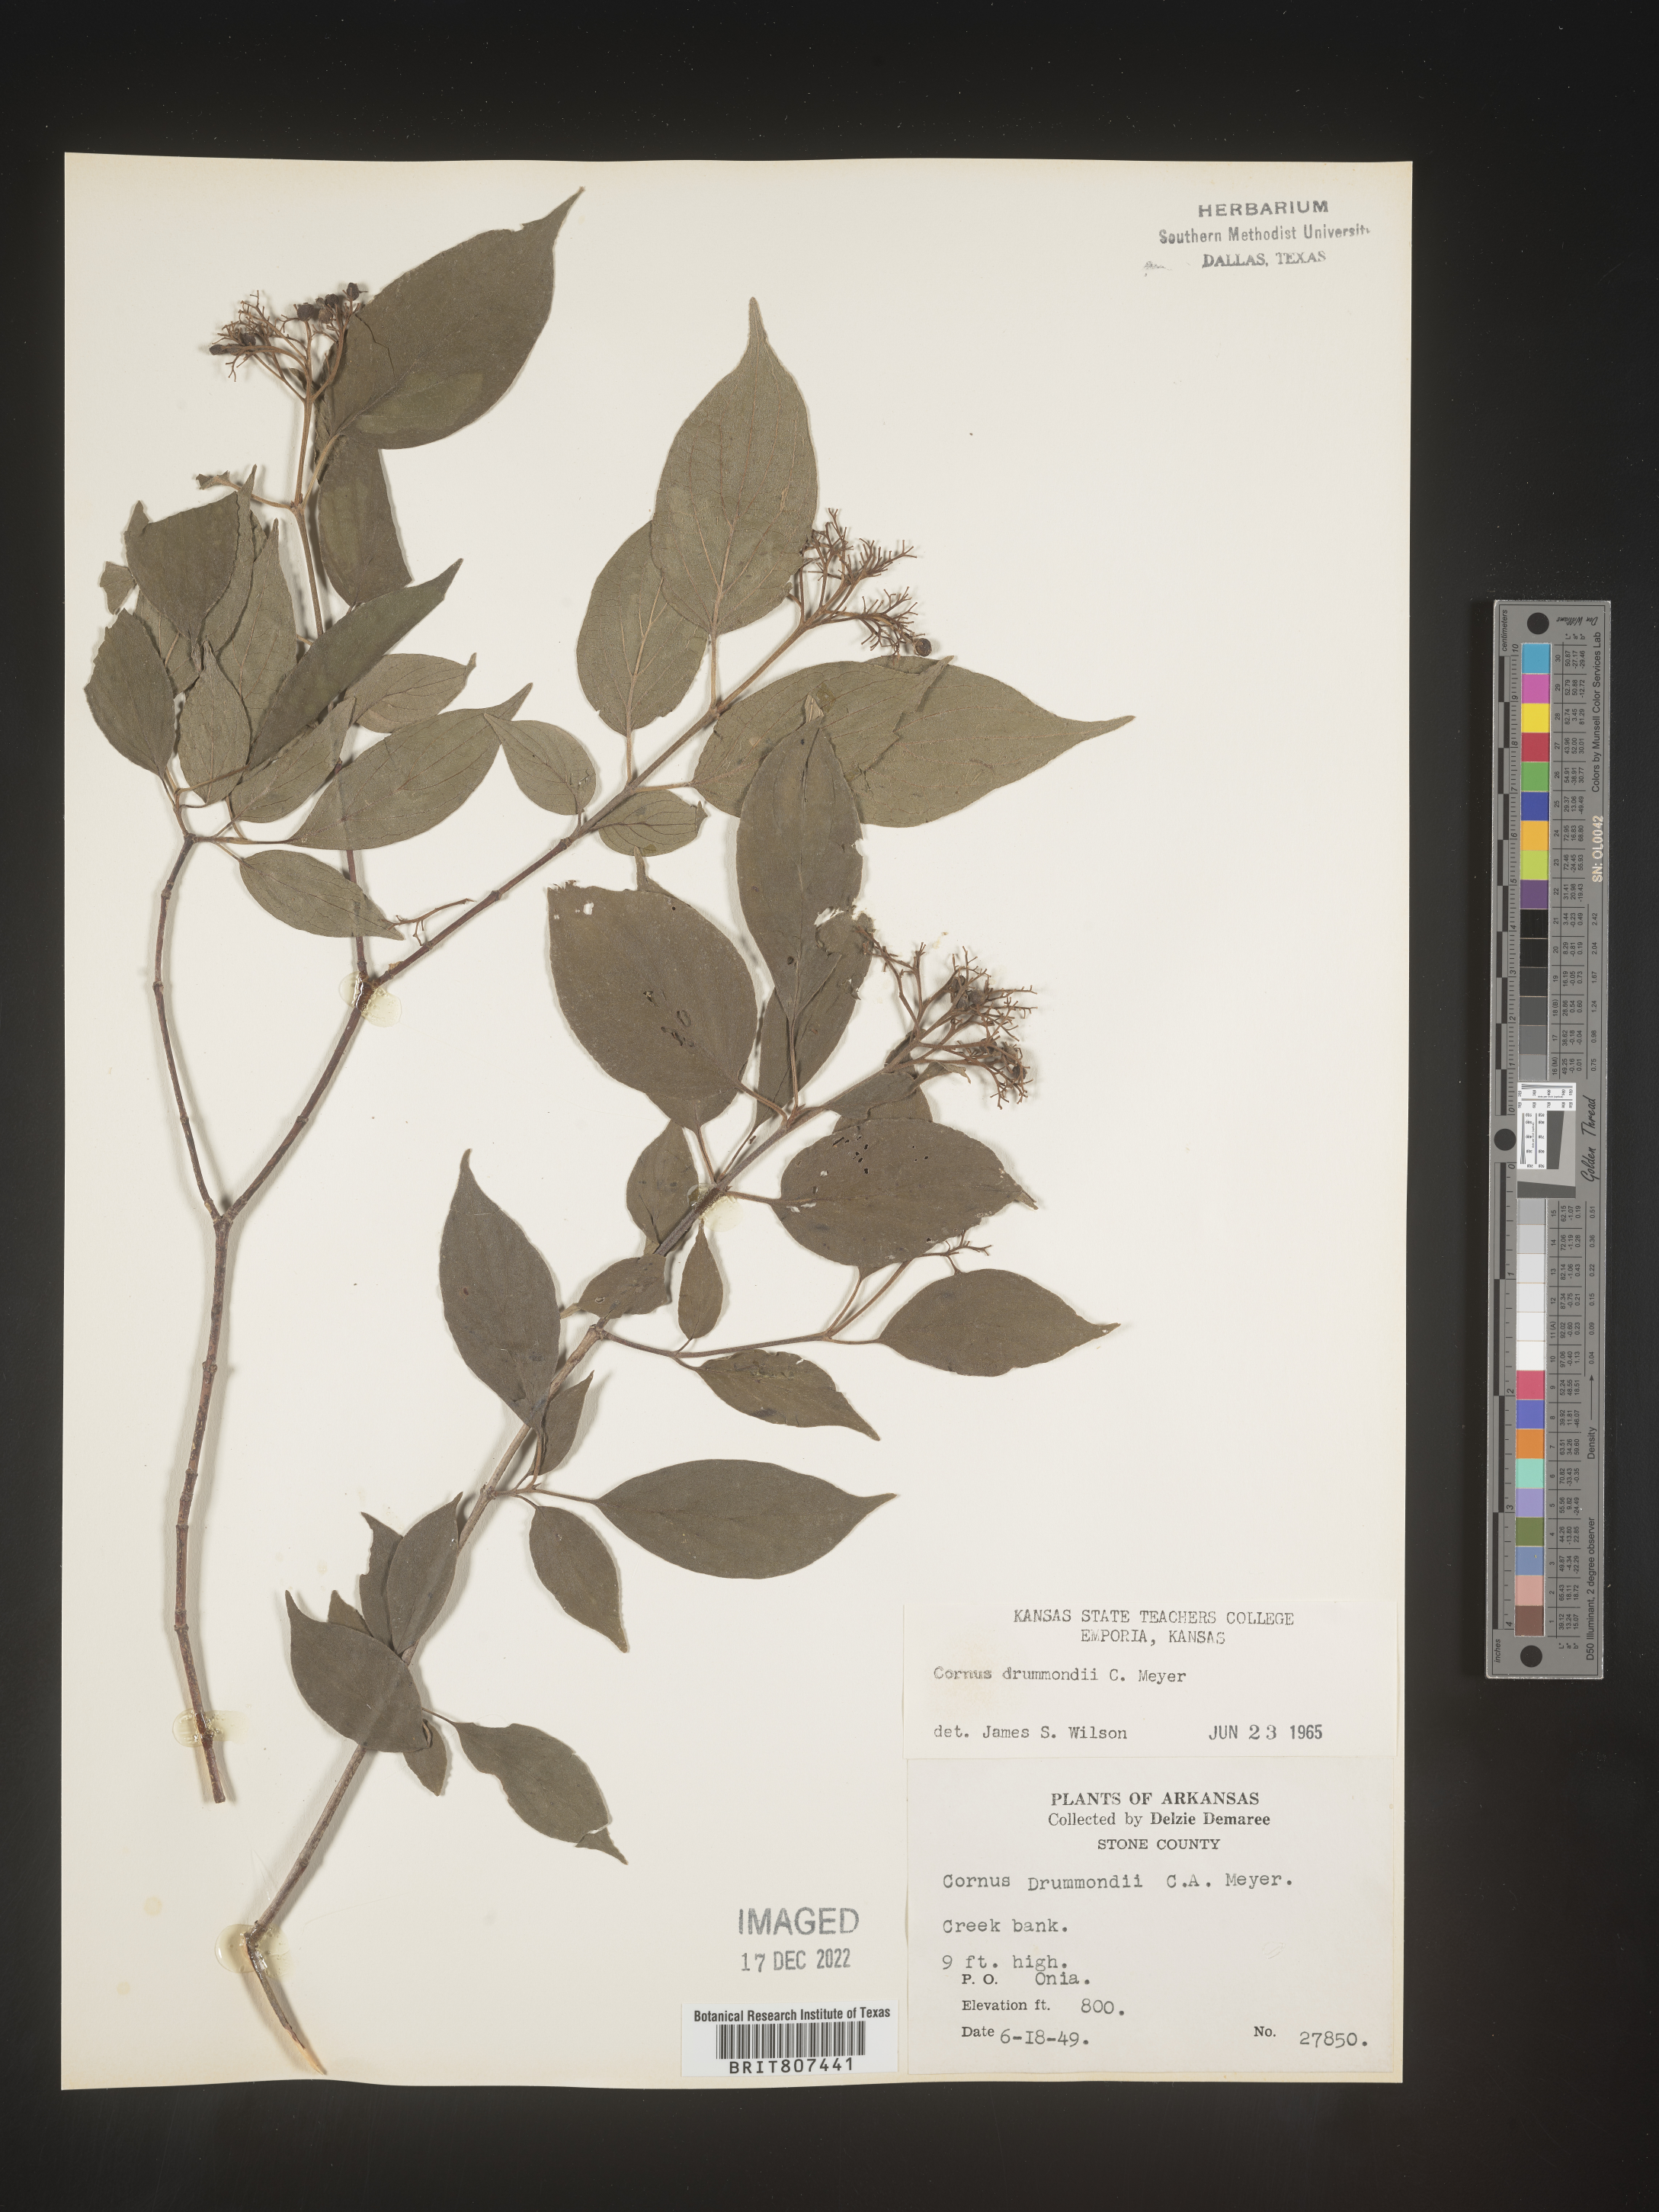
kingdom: Plantae
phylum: Tracheophyta
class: Magnoliopsida
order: Cornales
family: Cornaceae
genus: Cornus
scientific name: Cornus drummondii
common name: Rough-leaf dogwood
